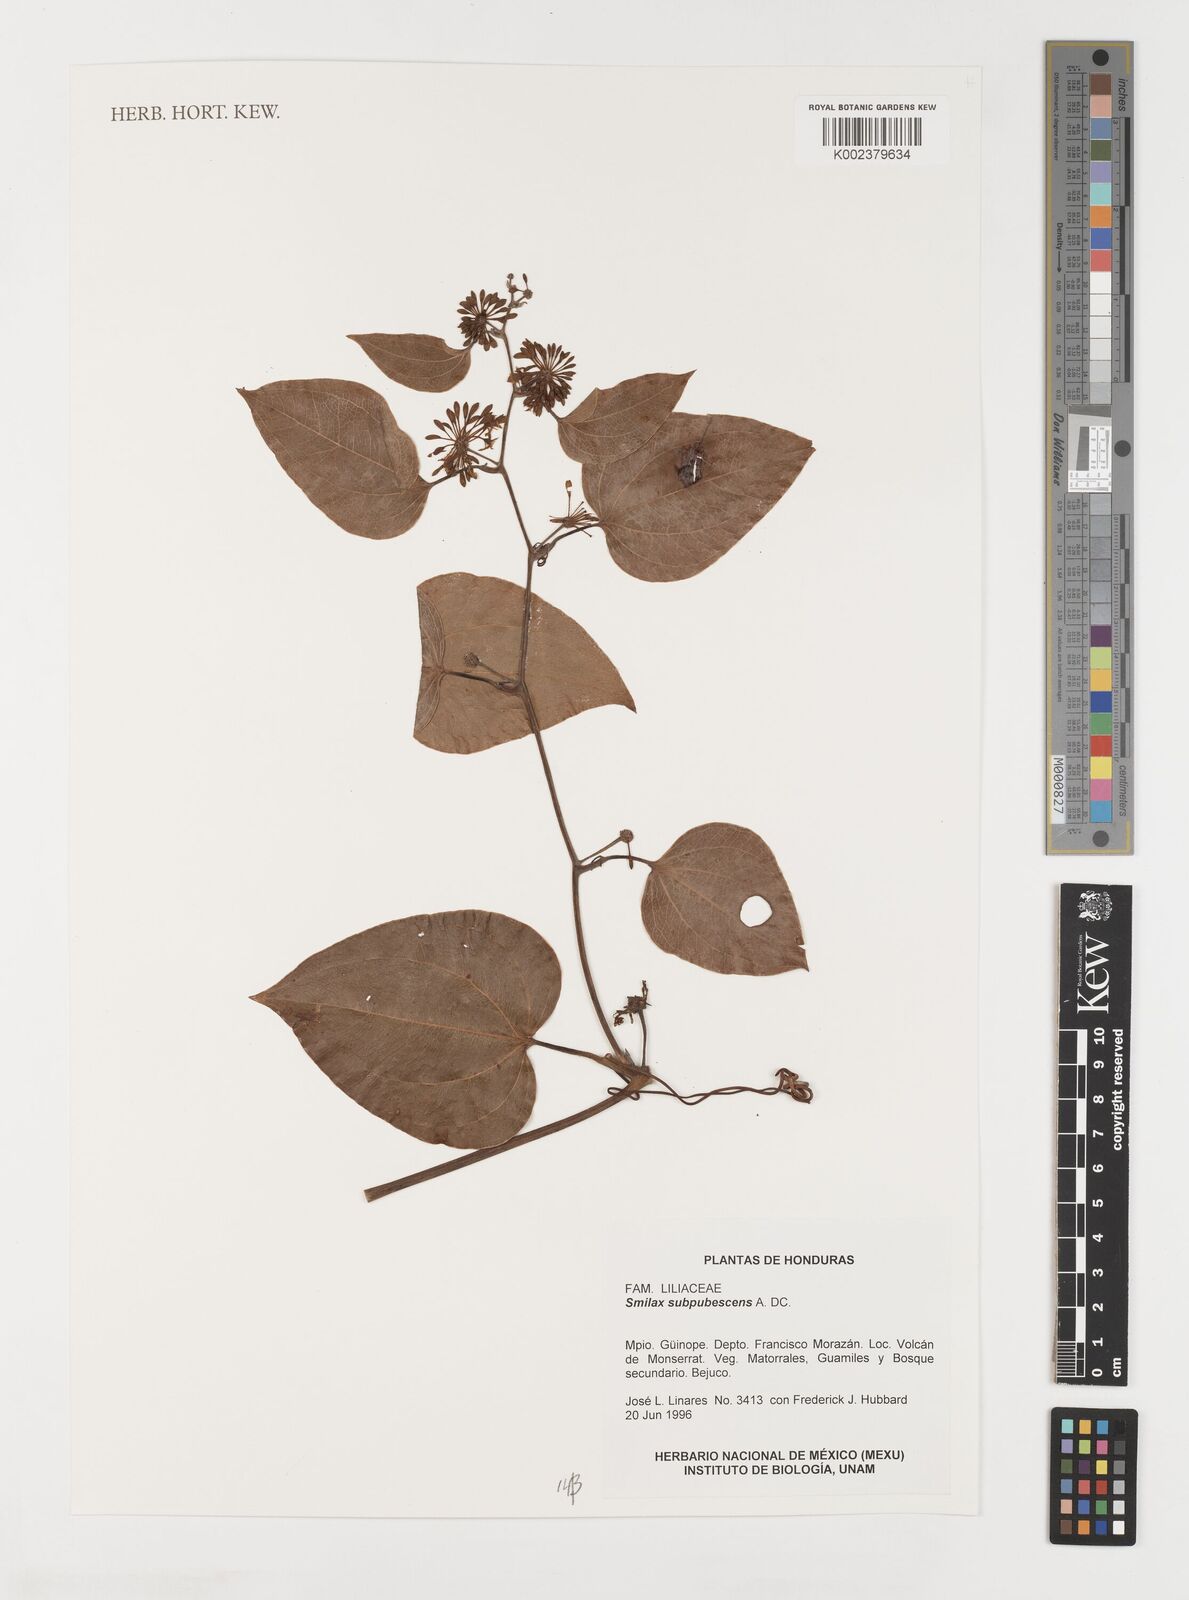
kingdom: Plantae
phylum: Tracheophyta
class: Liliopsida
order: Liliales
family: Smilacaceae
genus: Smilax
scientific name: Smilax subpubescens
